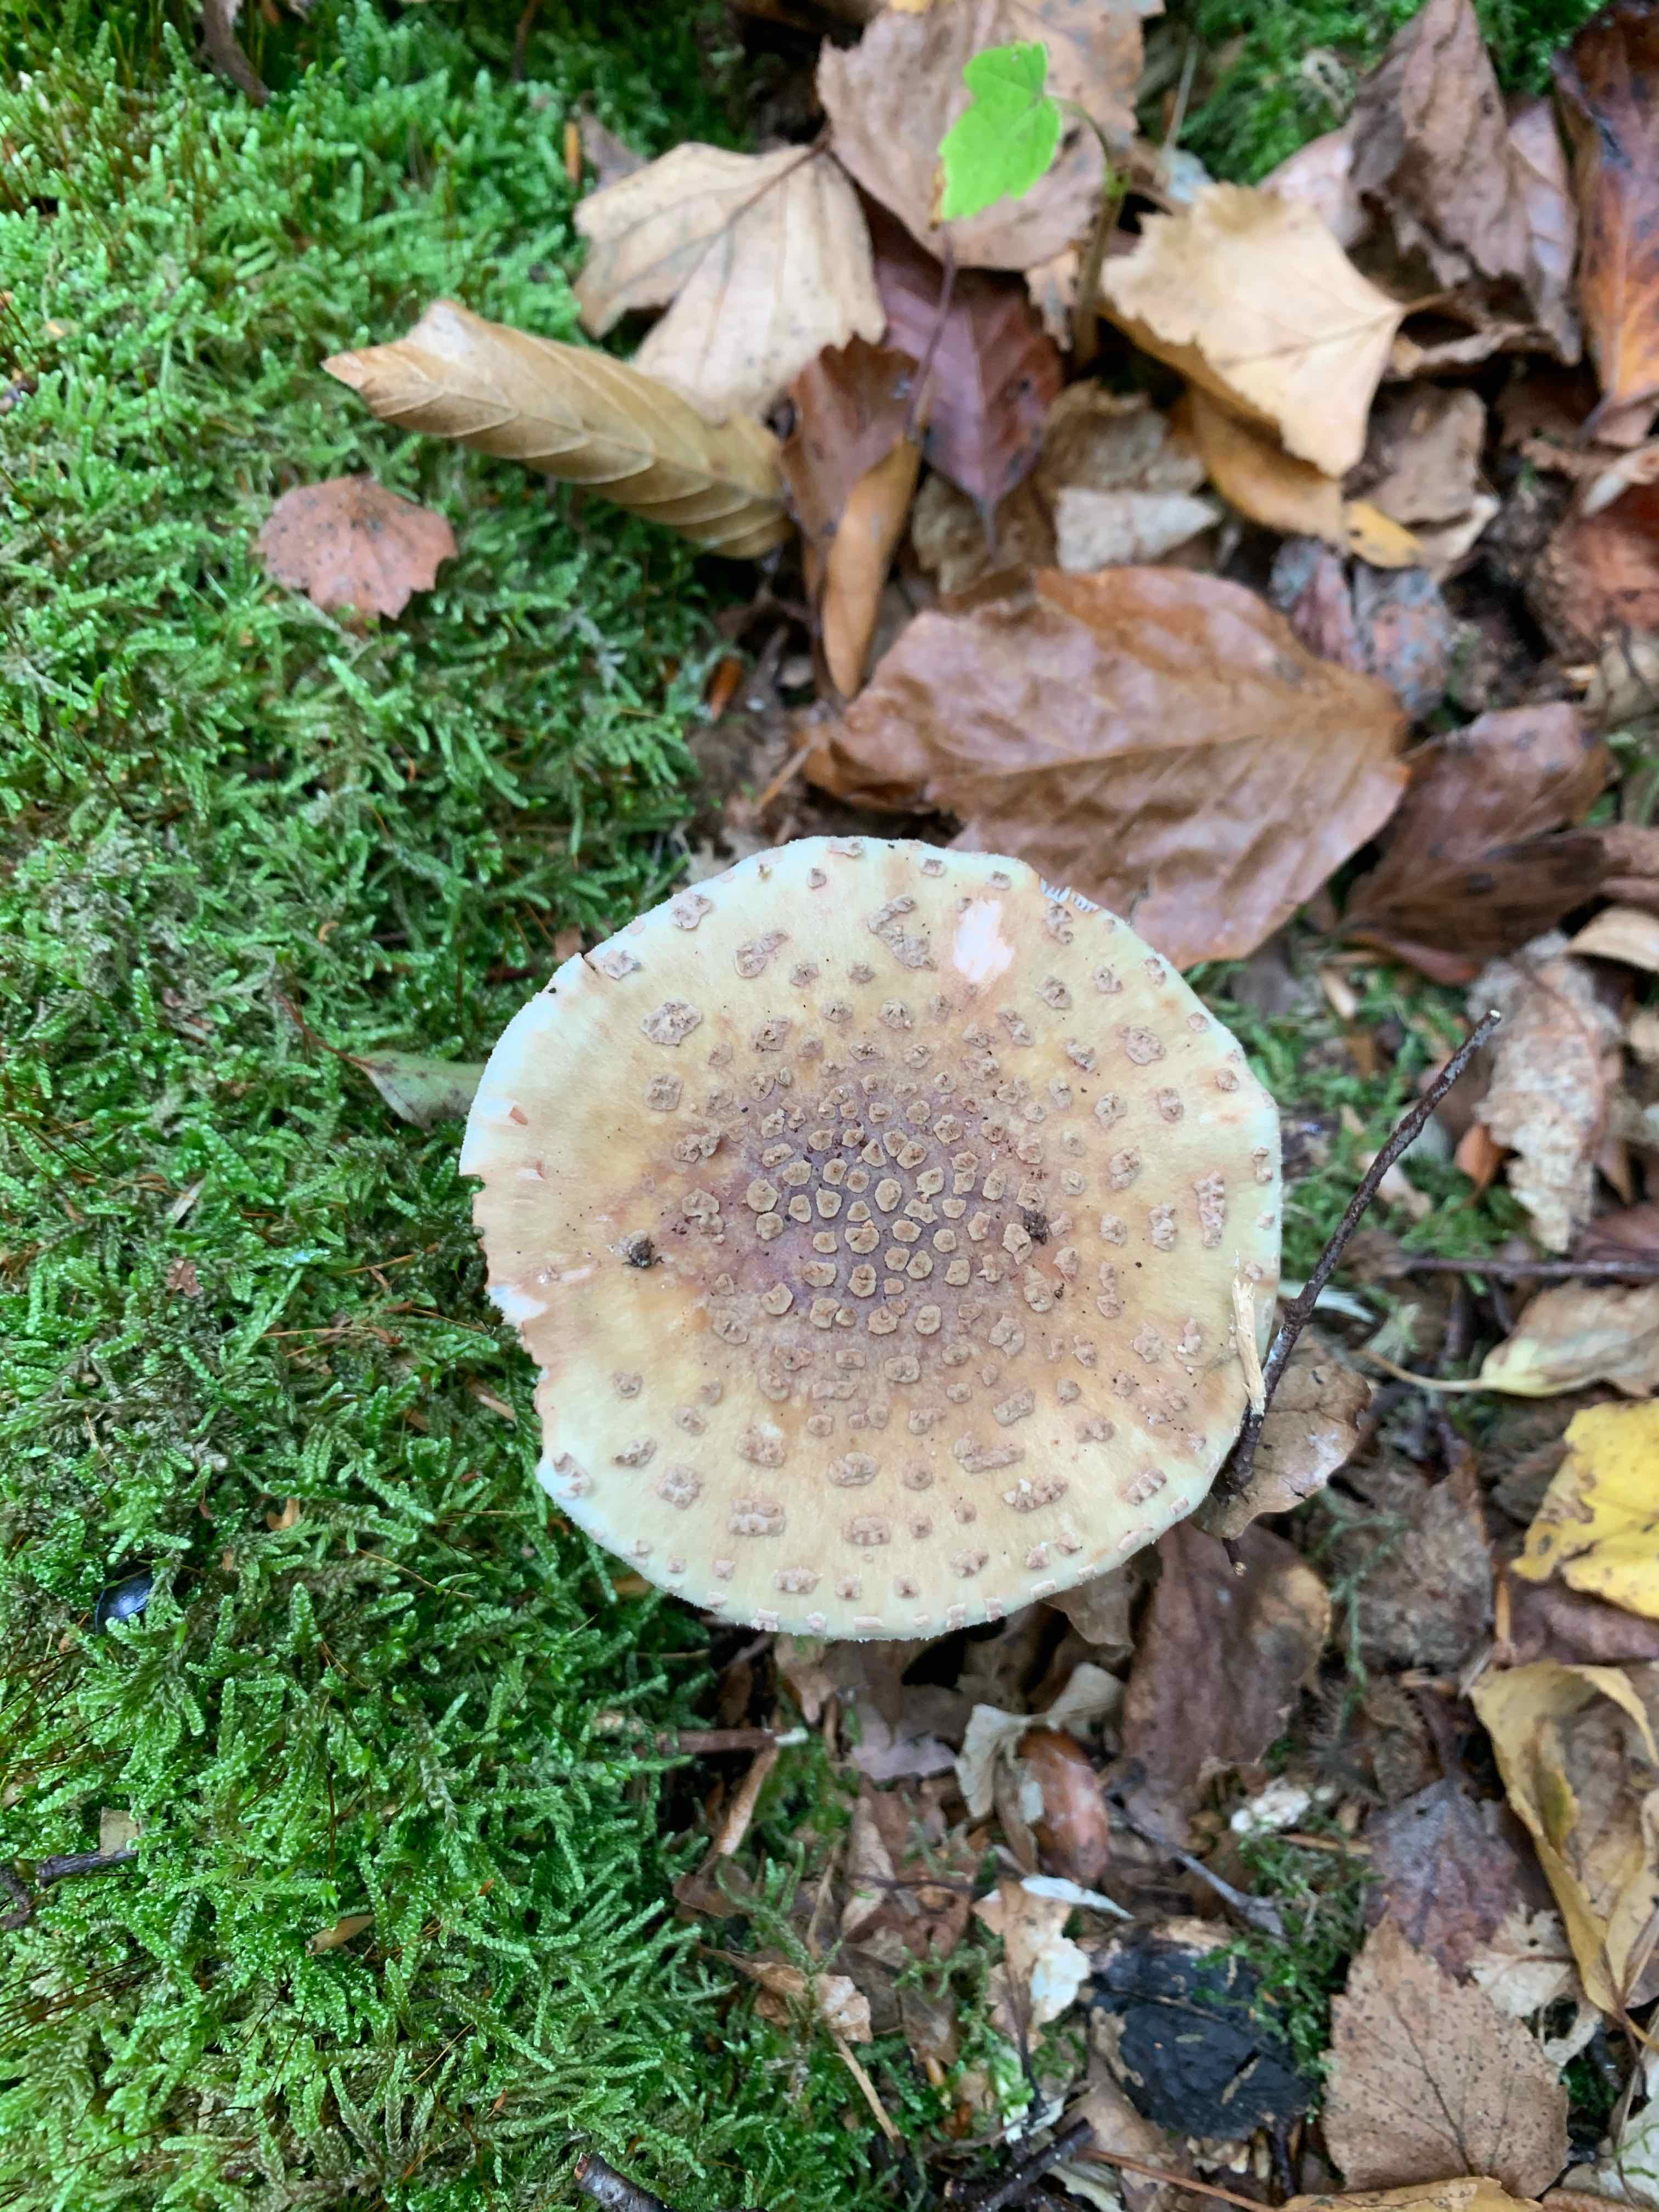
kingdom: Fungi
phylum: Basidiomycota
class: Agaricomycetes
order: Agaricales
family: Amanitaceae
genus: Amanita
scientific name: Amanita rubescens
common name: rødmende fluesvamp
